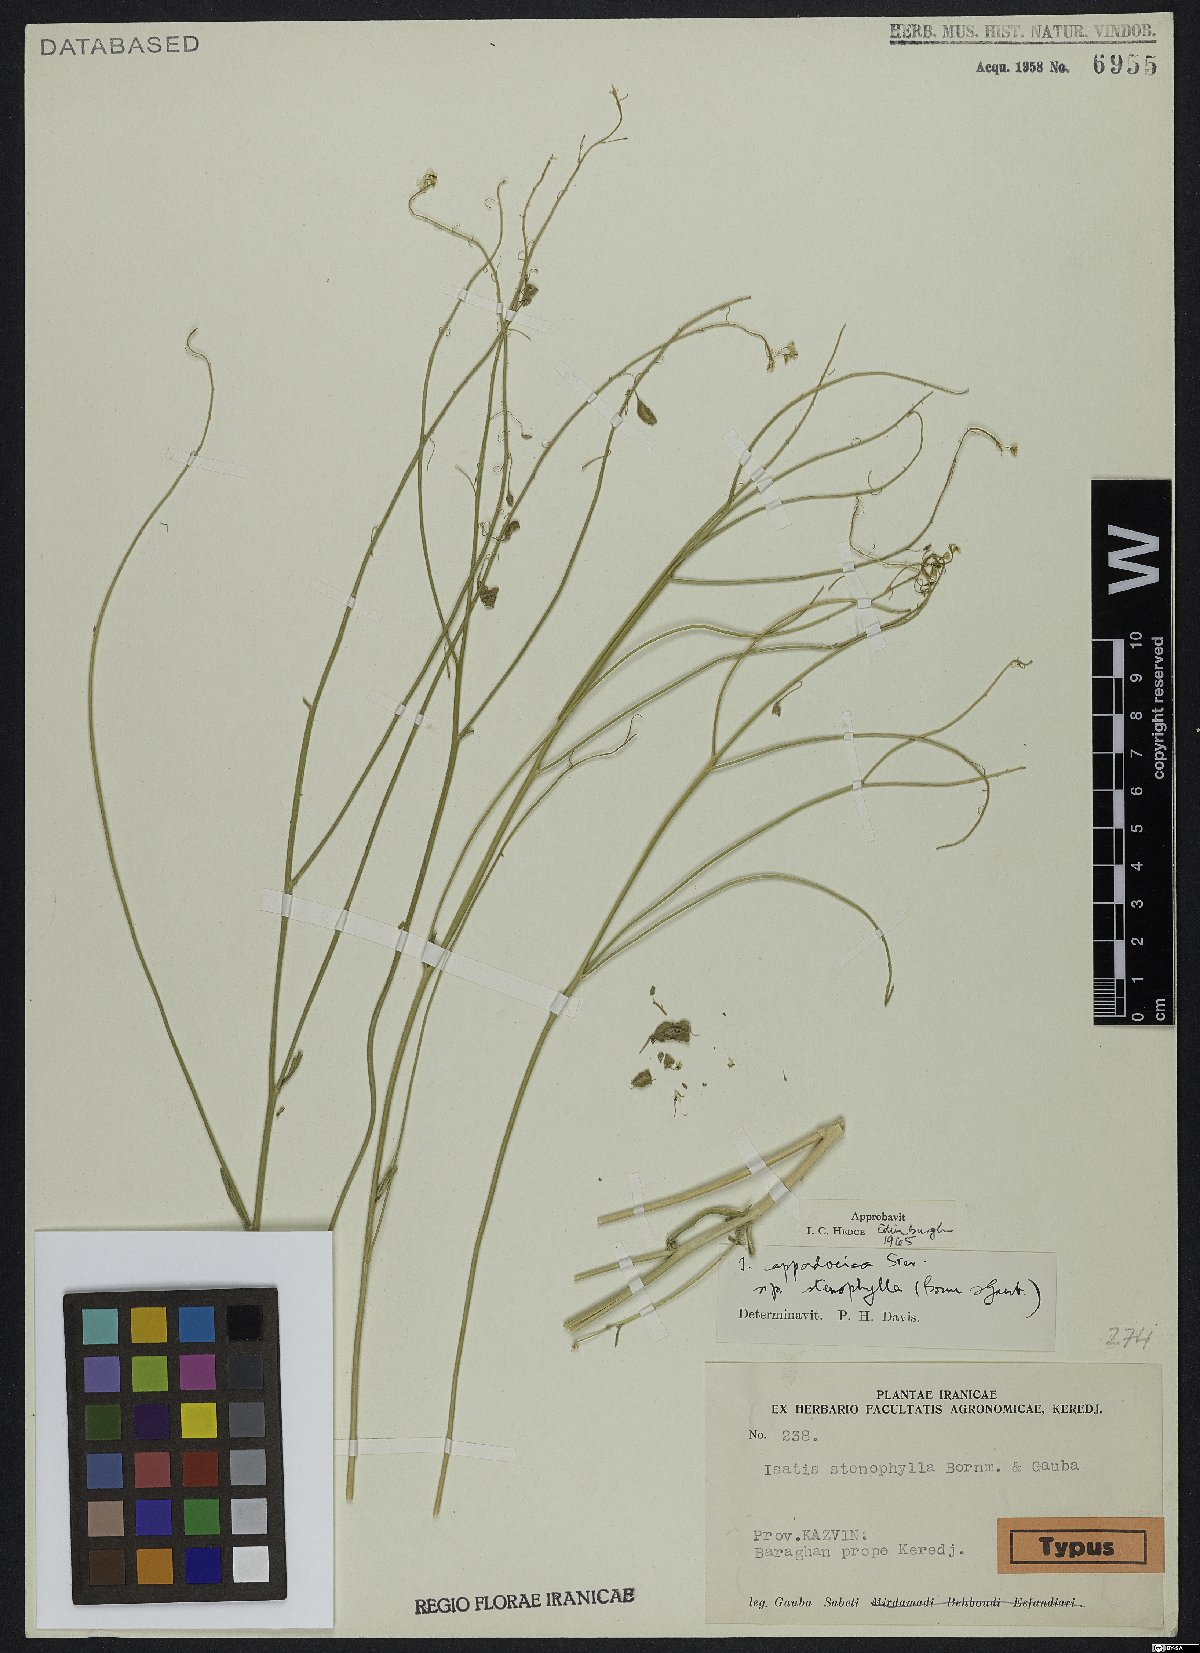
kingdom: Plantae
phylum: Tracheophyta
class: Magnoliopsida
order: Brassicales
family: Brassicaceae
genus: Isatis
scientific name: Isatis cappadocica
